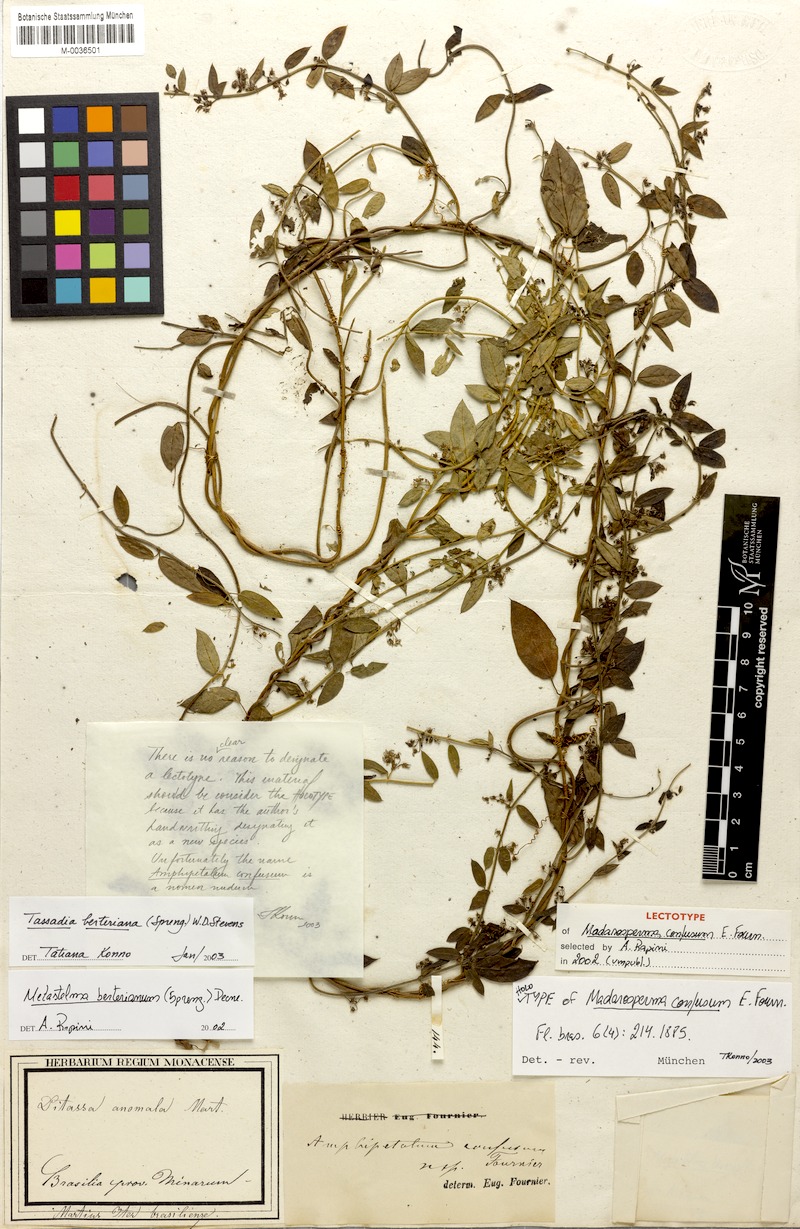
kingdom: Plantae
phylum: Tracheophyta
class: Magnoliopsida
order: Gentianales
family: Apocynaceae
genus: Tassadia
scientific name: Tassadia berteroana
